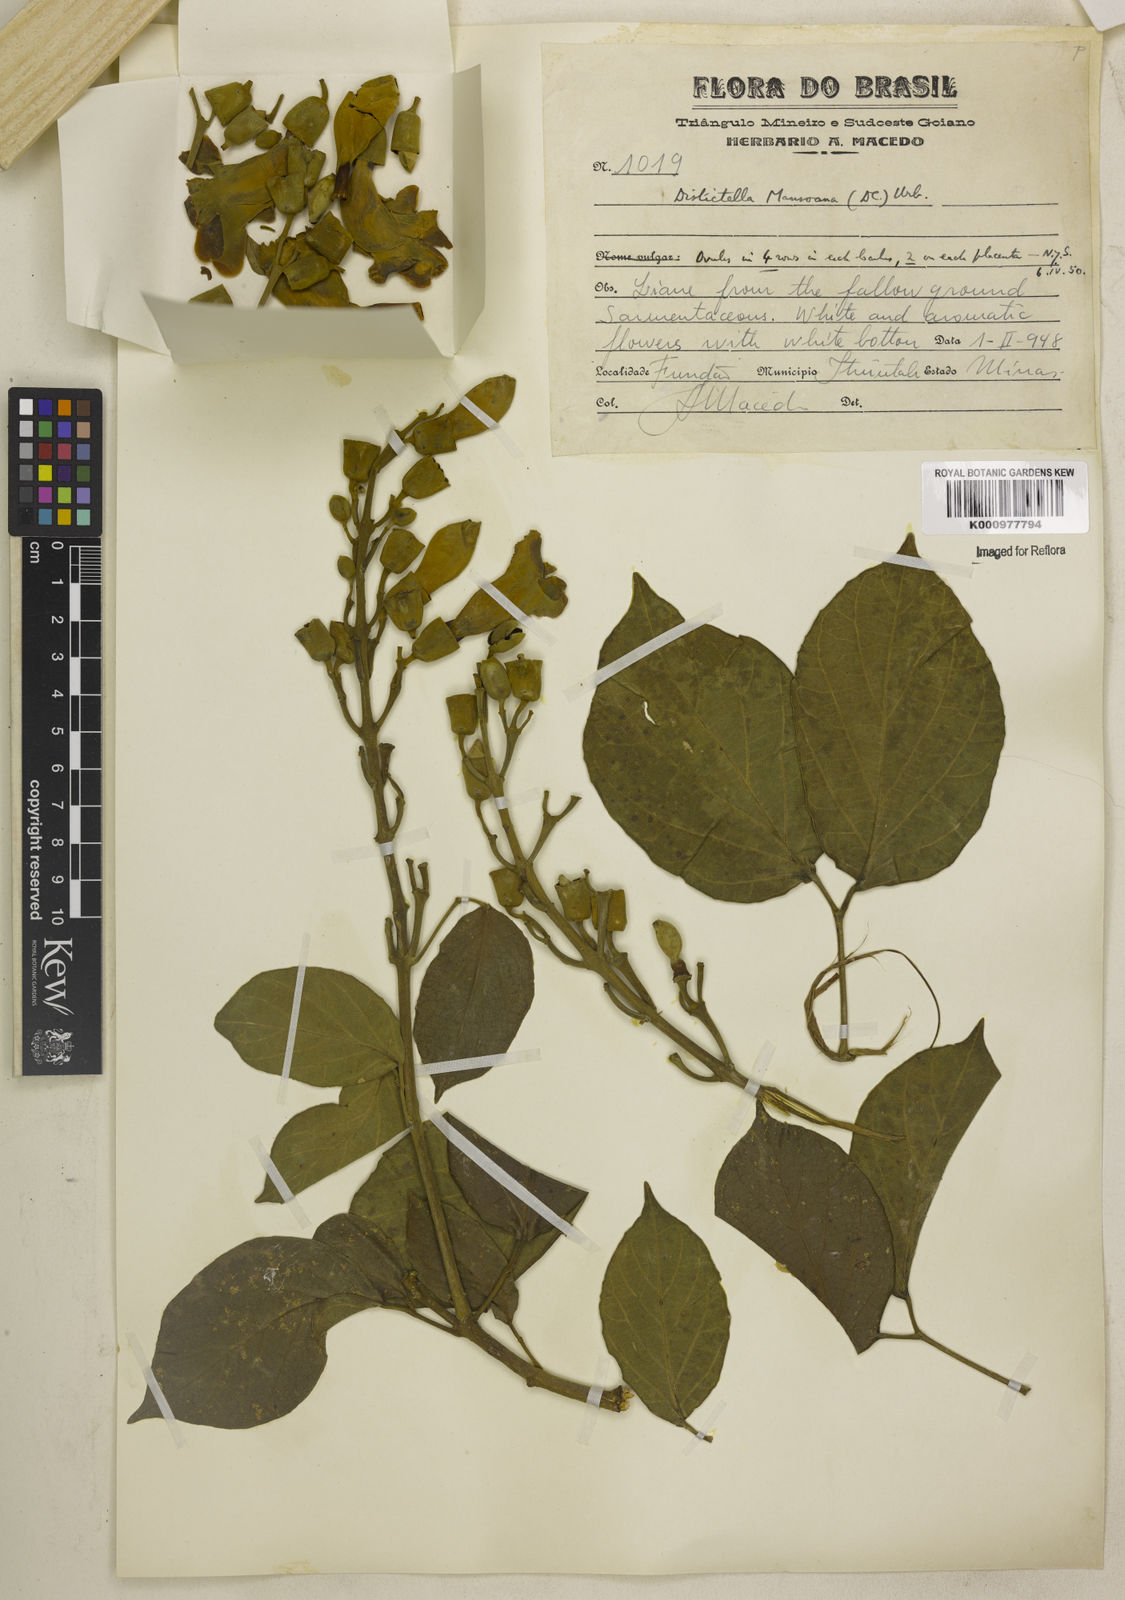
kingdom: Plantae
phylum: Tracheophyta
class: Magnoliopsida
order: Lamiales
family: Bignoniaceae
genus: Amphilophium
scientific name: Amphilophium mansoanum
